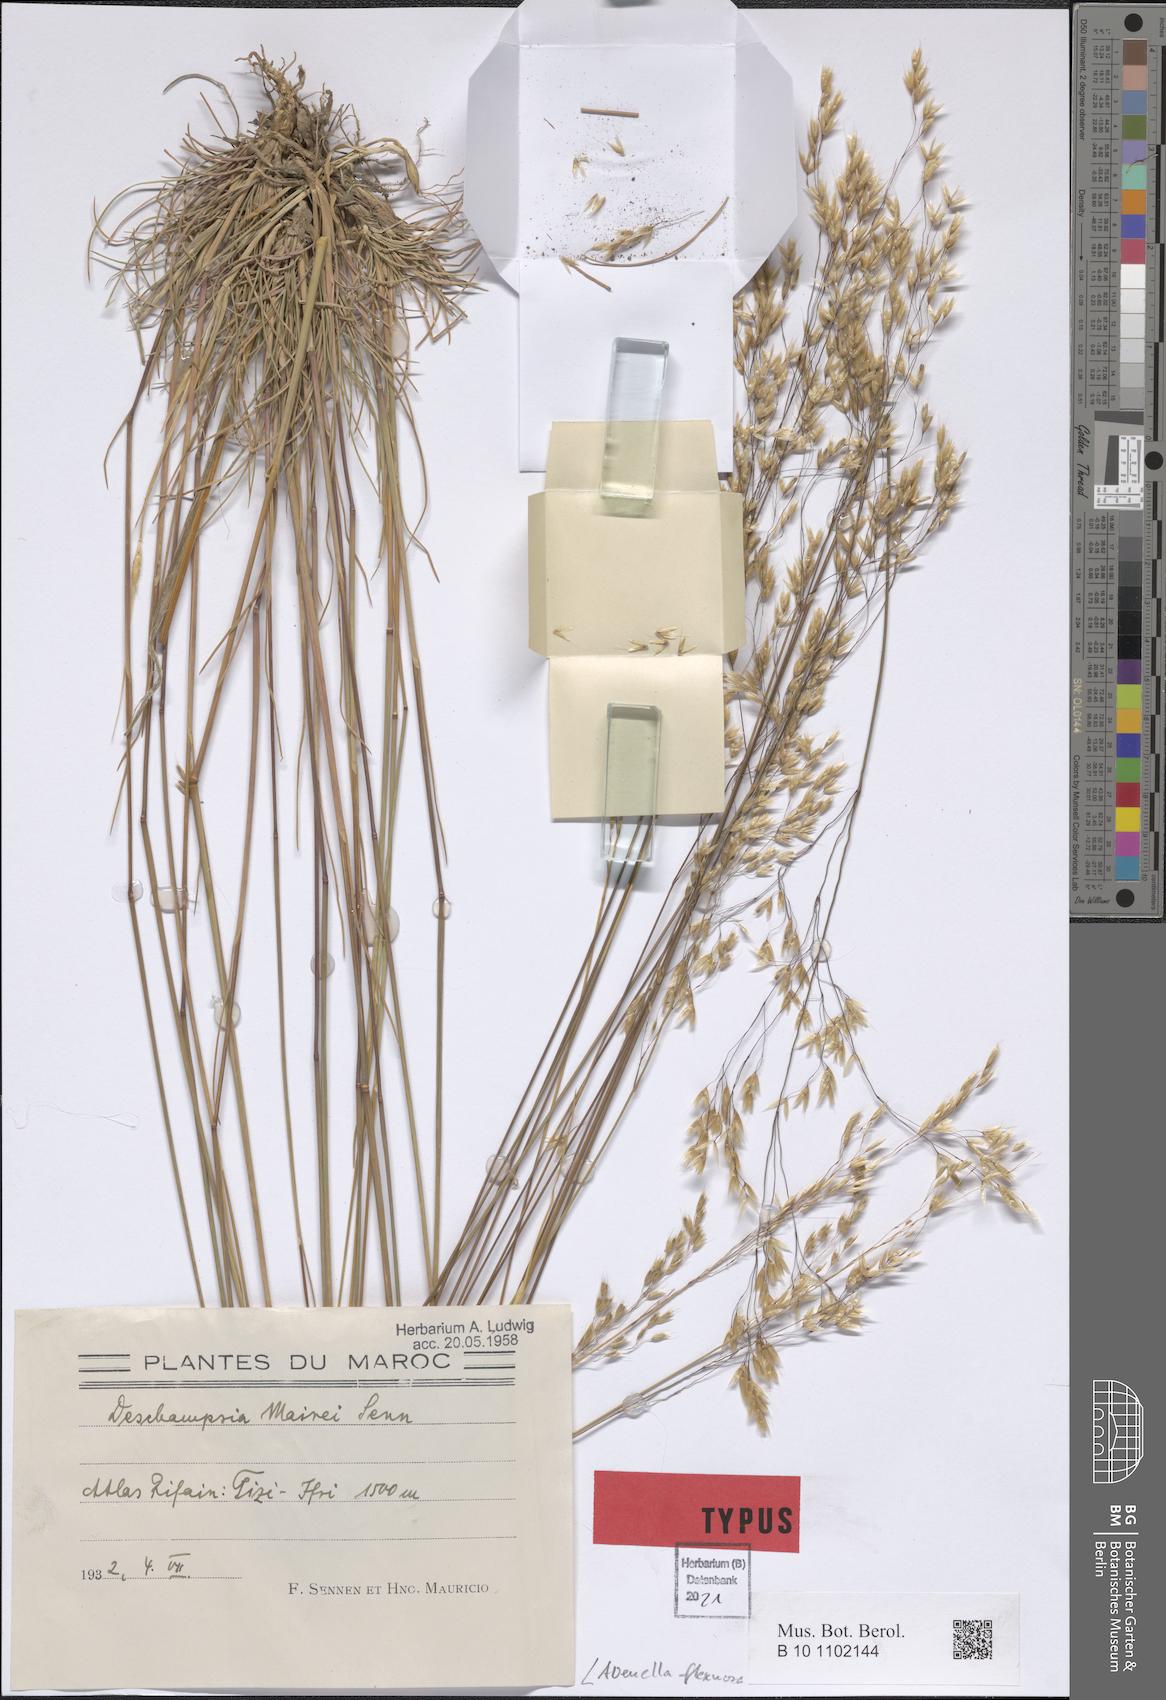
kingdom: Plantae
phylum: Tracheophyta
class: Liliopsida
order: Poales
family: Poaceae
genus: Avenella
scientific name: Avenella flexuosa
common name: Wavy hairgrass
